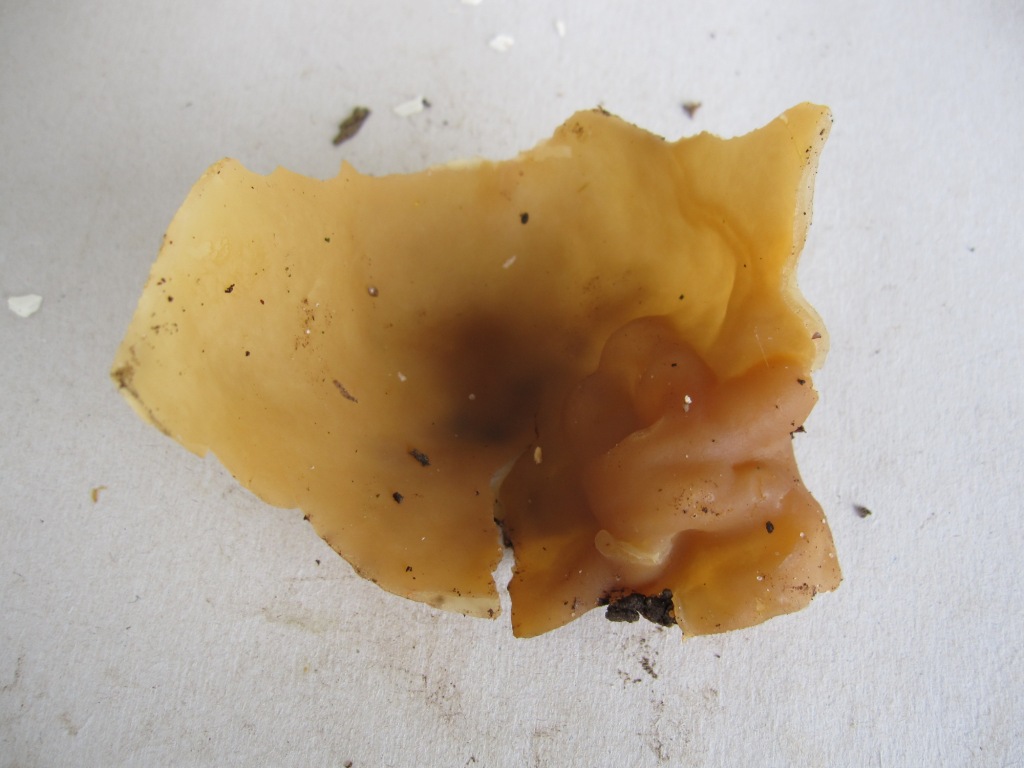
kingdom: Fungi
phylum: Ascomycota
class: Pezizomycetes
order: Pezizales
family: Pezizaceae
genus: Peziza
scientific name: Peziza arvernensis
